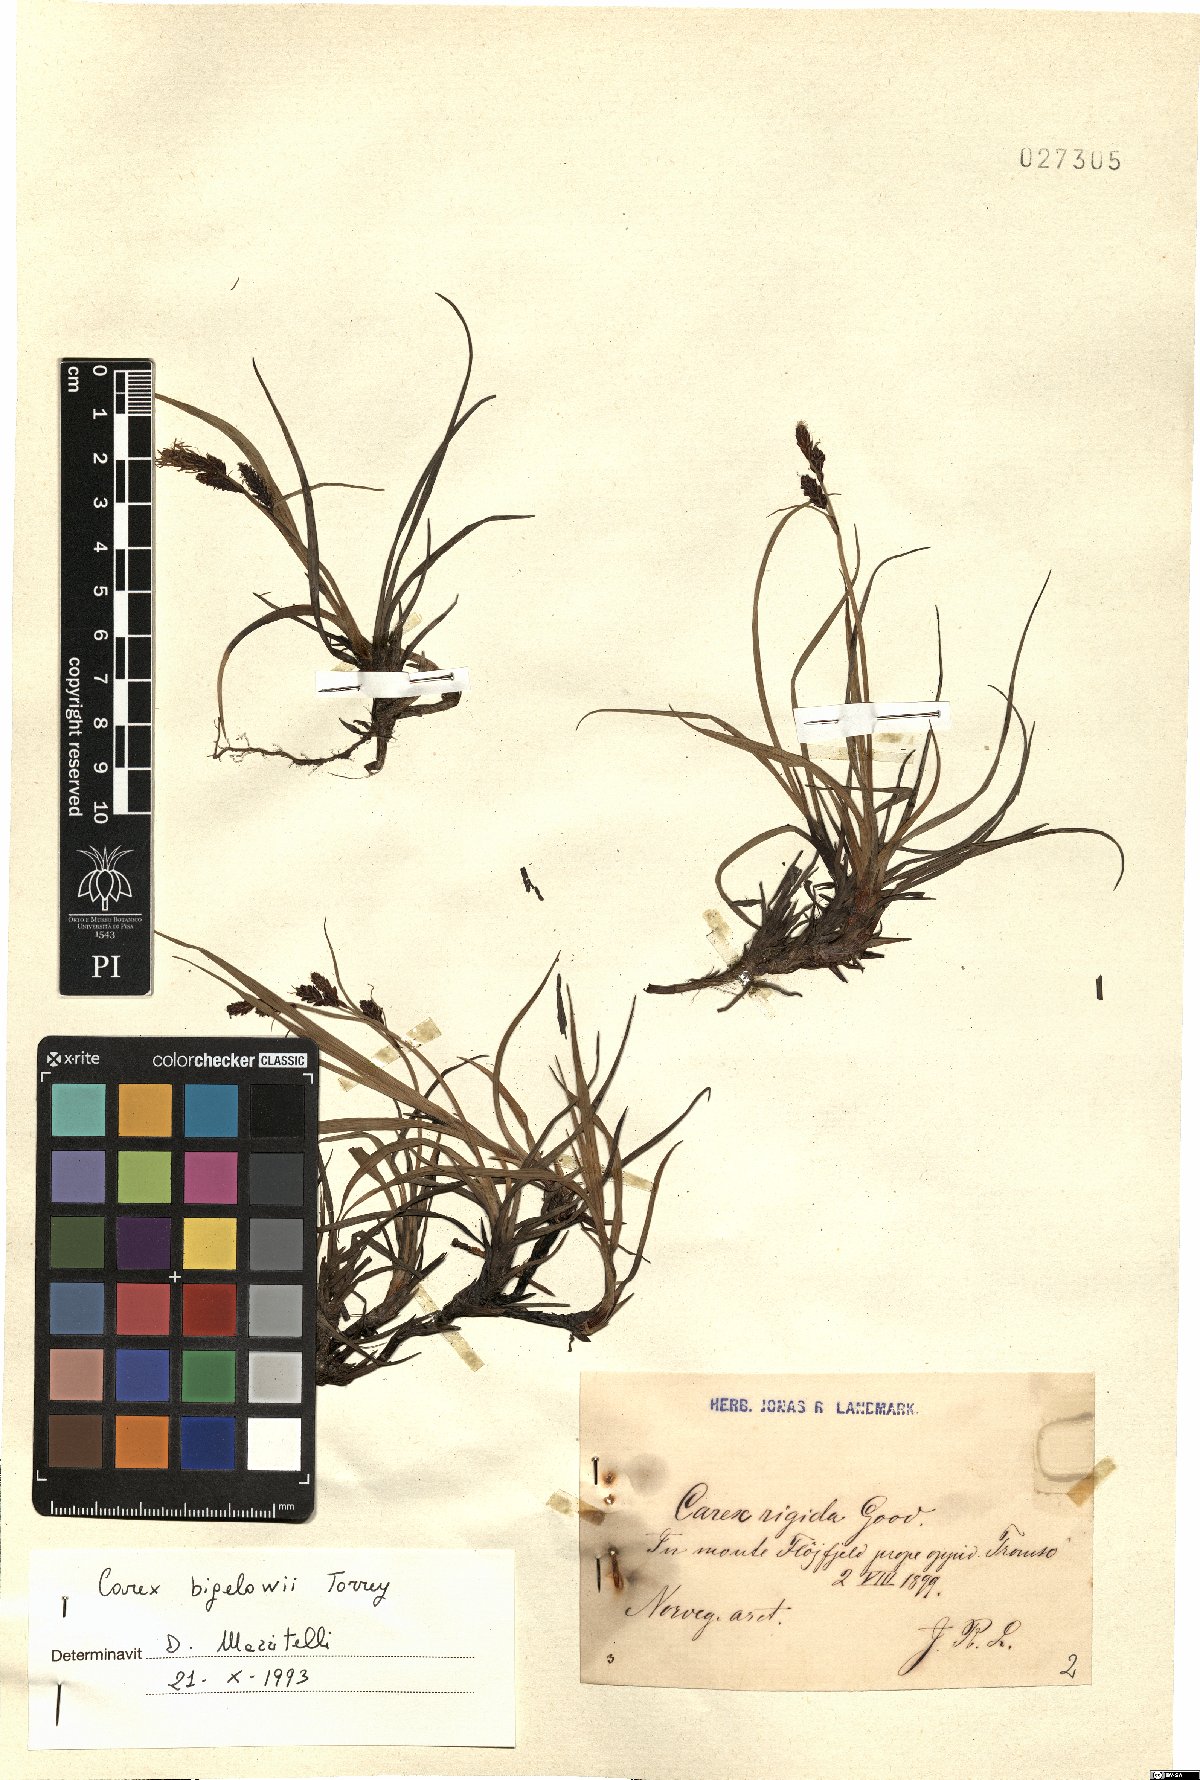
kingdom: Plantae
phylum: Tracheophyta
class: Liliopsida
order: Poales
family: Cyperaceae
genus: Carex
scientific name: Carex bigelowii
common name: Stiff sedge
